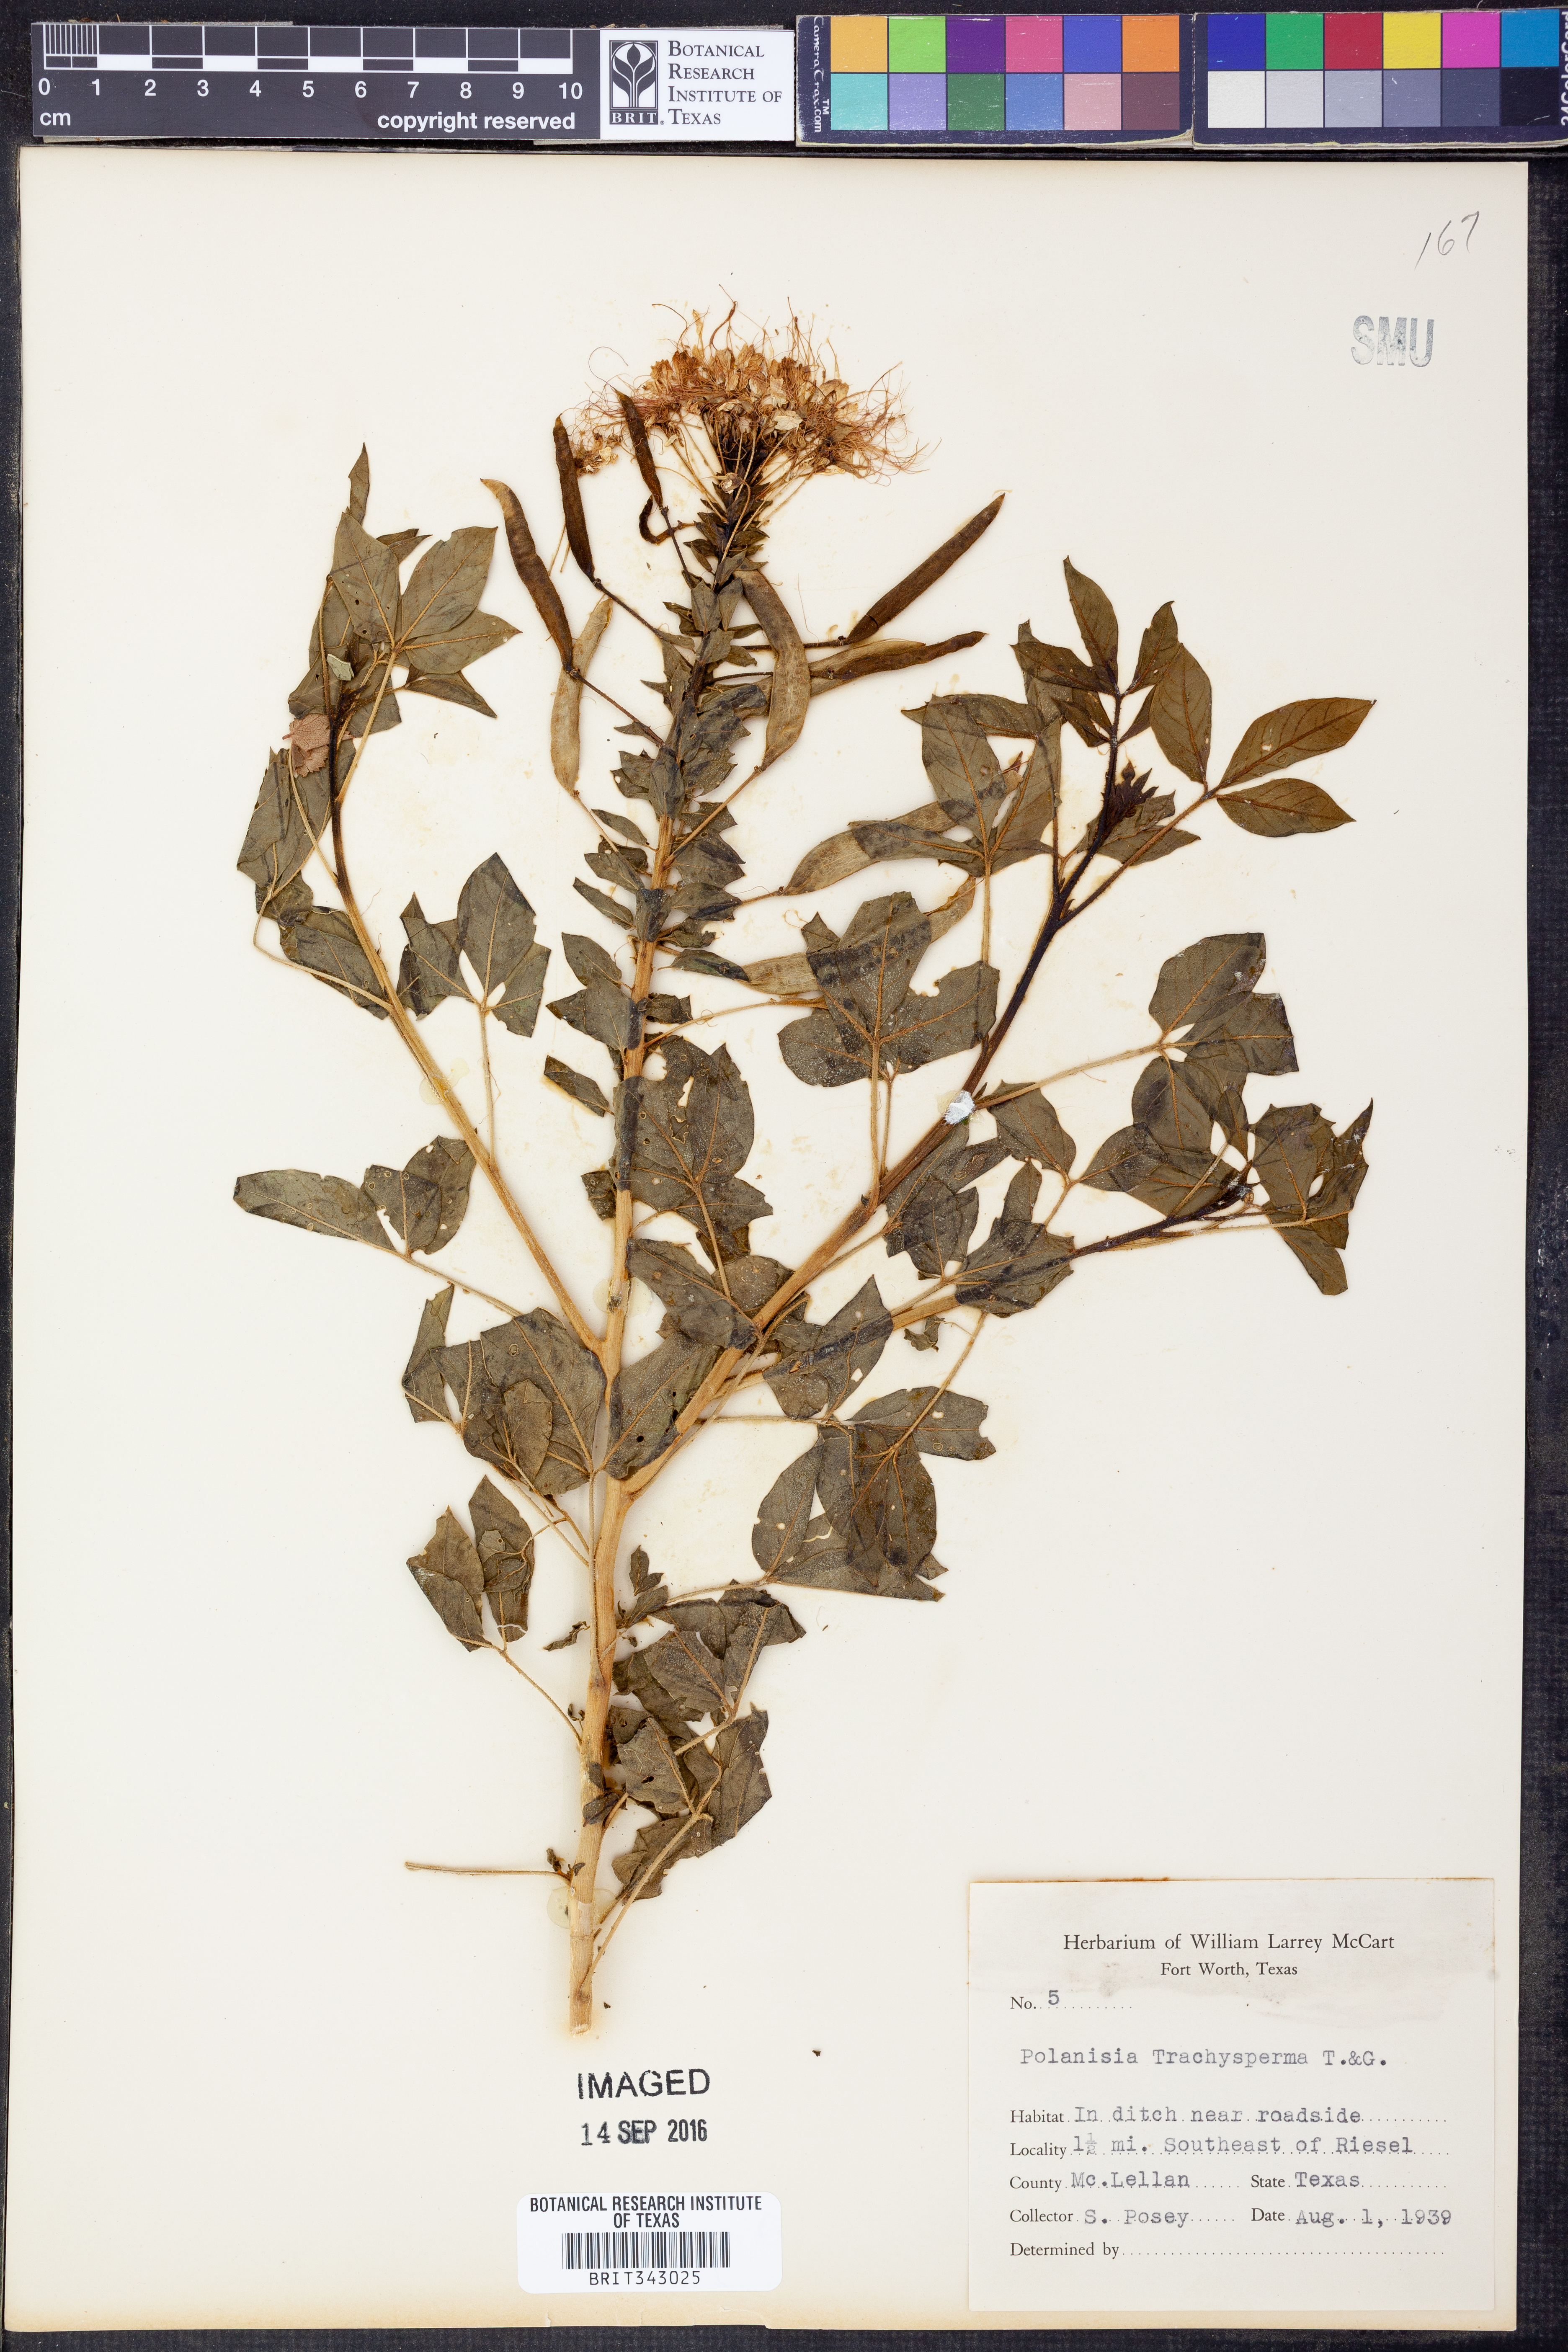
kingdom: Plantae
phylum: Tracheophyta
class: Magnoliopsida
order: Brassicales
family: Cleomaceae
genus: Polanisia
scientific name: Polanisia trachysperma
